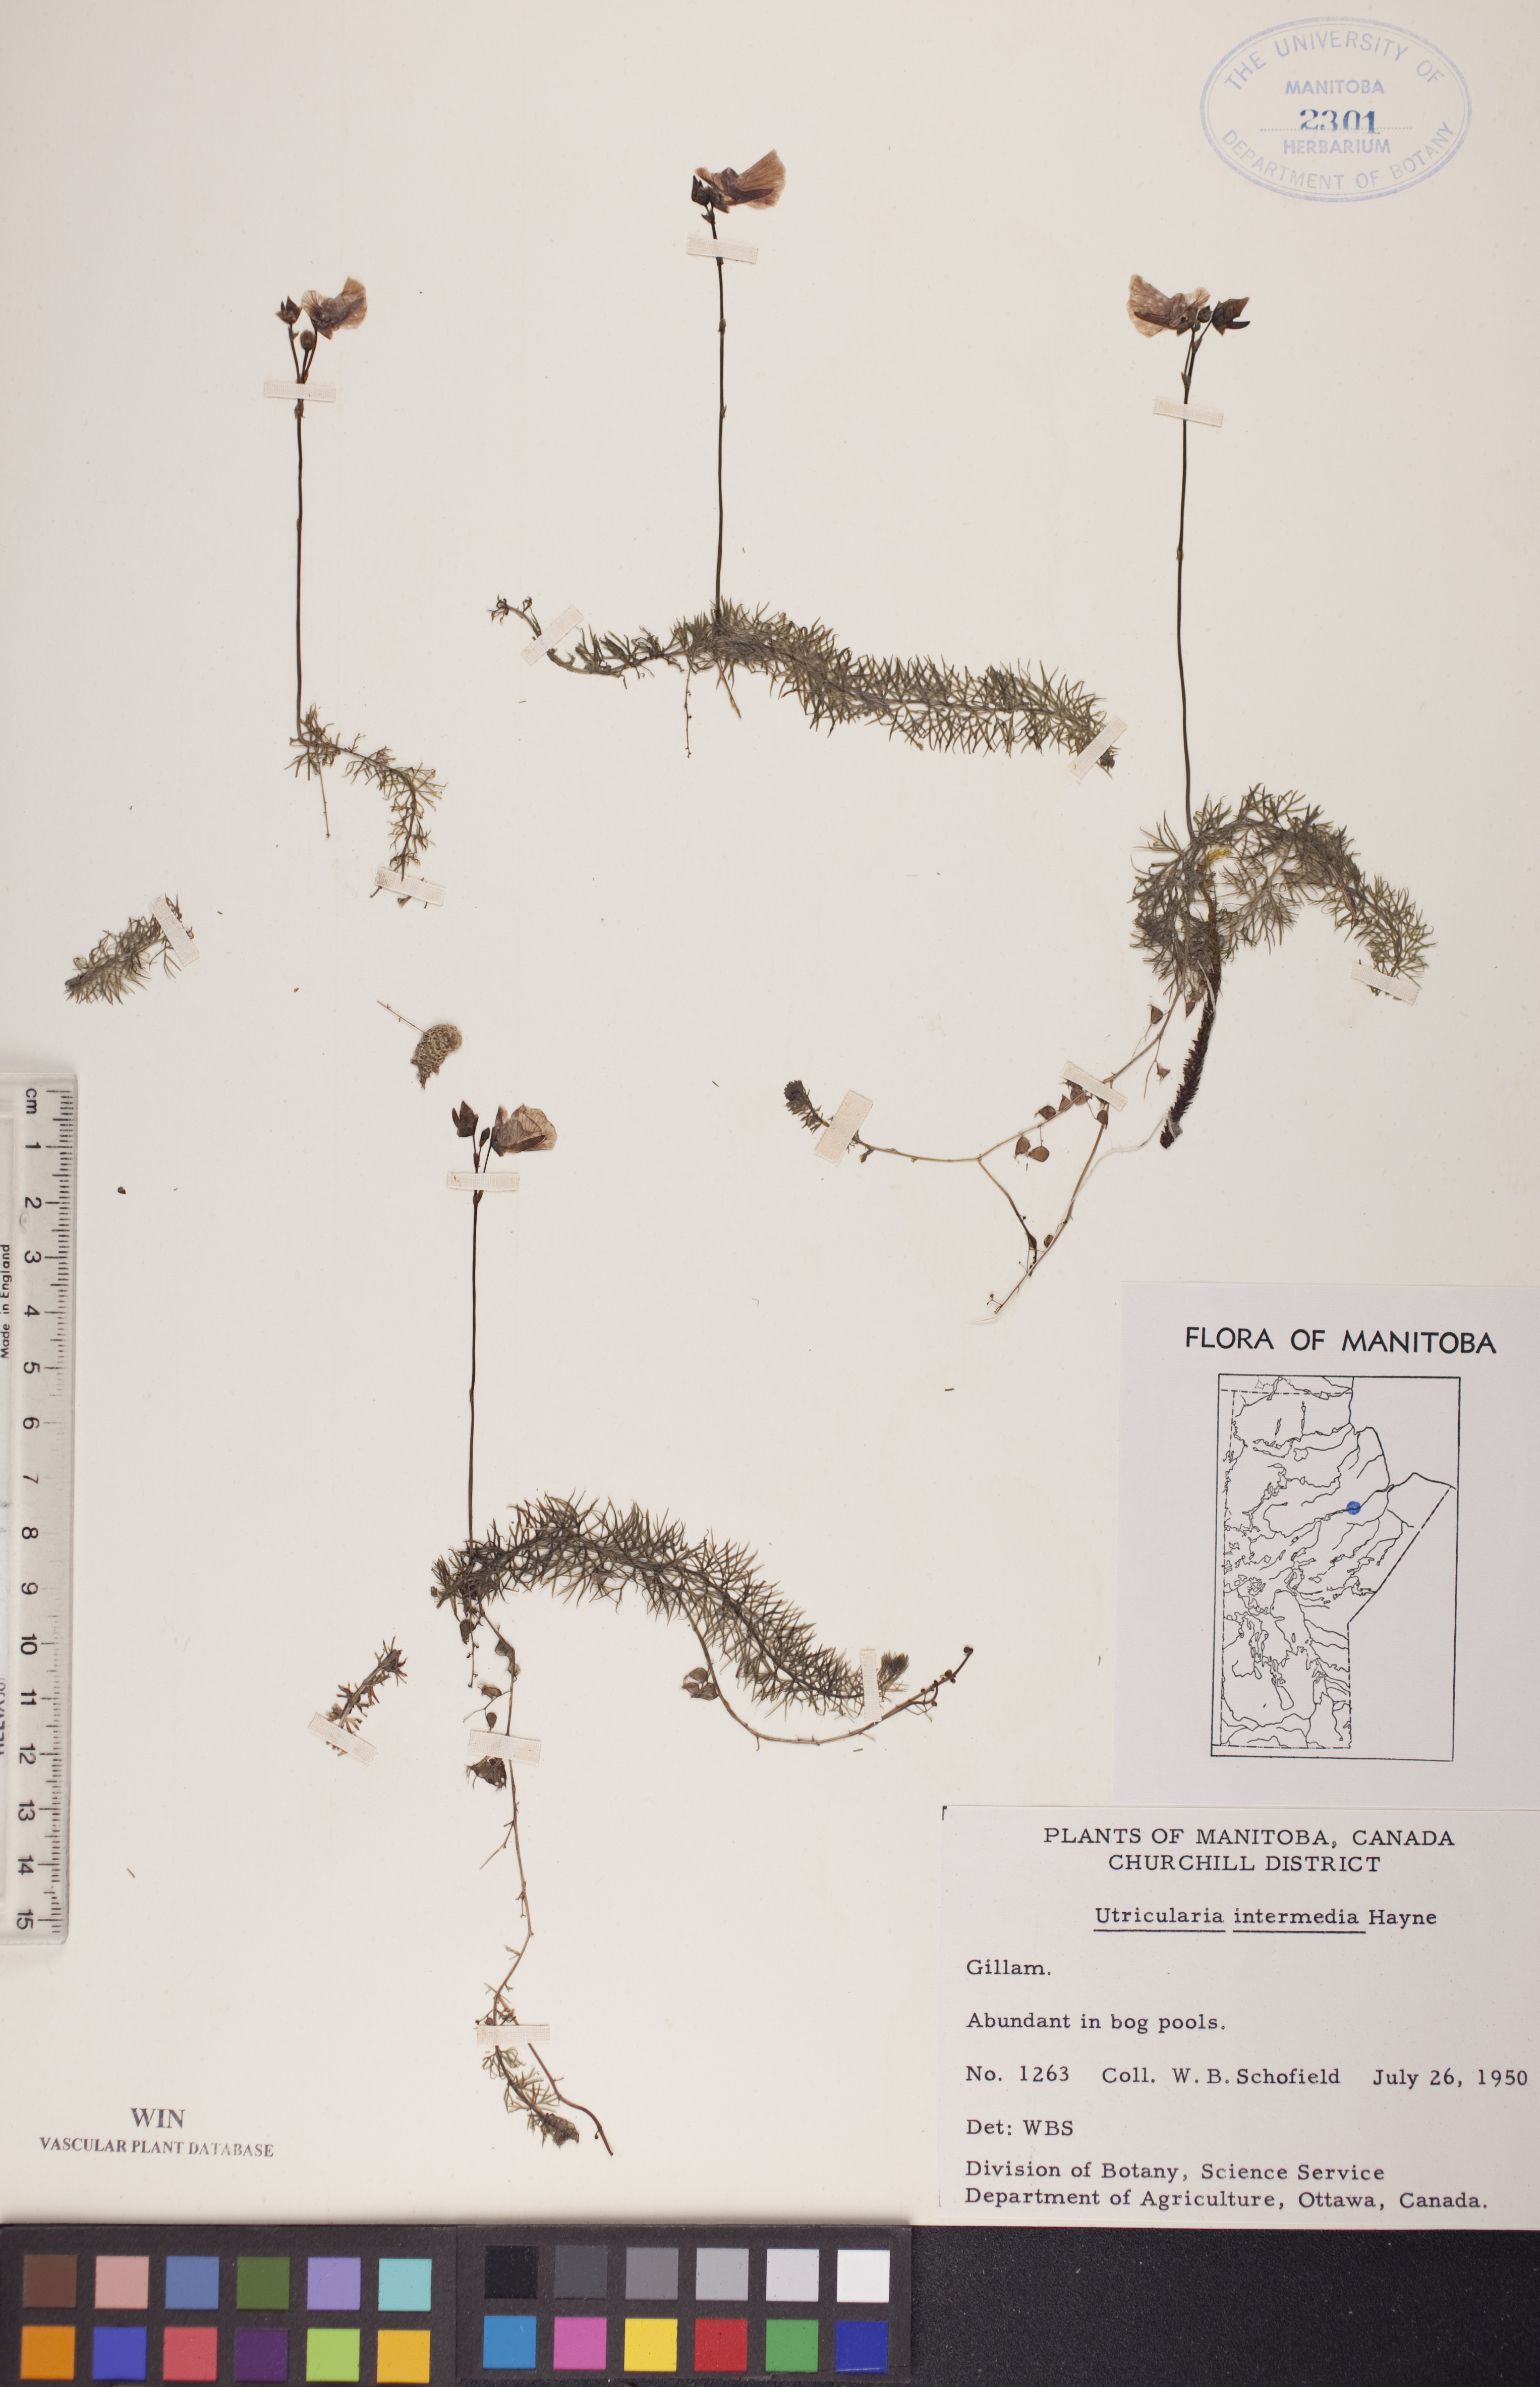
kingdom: Plantae
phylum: Tracheophyta
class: Magnoliopsida
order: Lamiales
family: Lentibulariaceae
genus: Utricularia
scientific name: Utricularia intermedia
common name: Intermediate bladderwort
